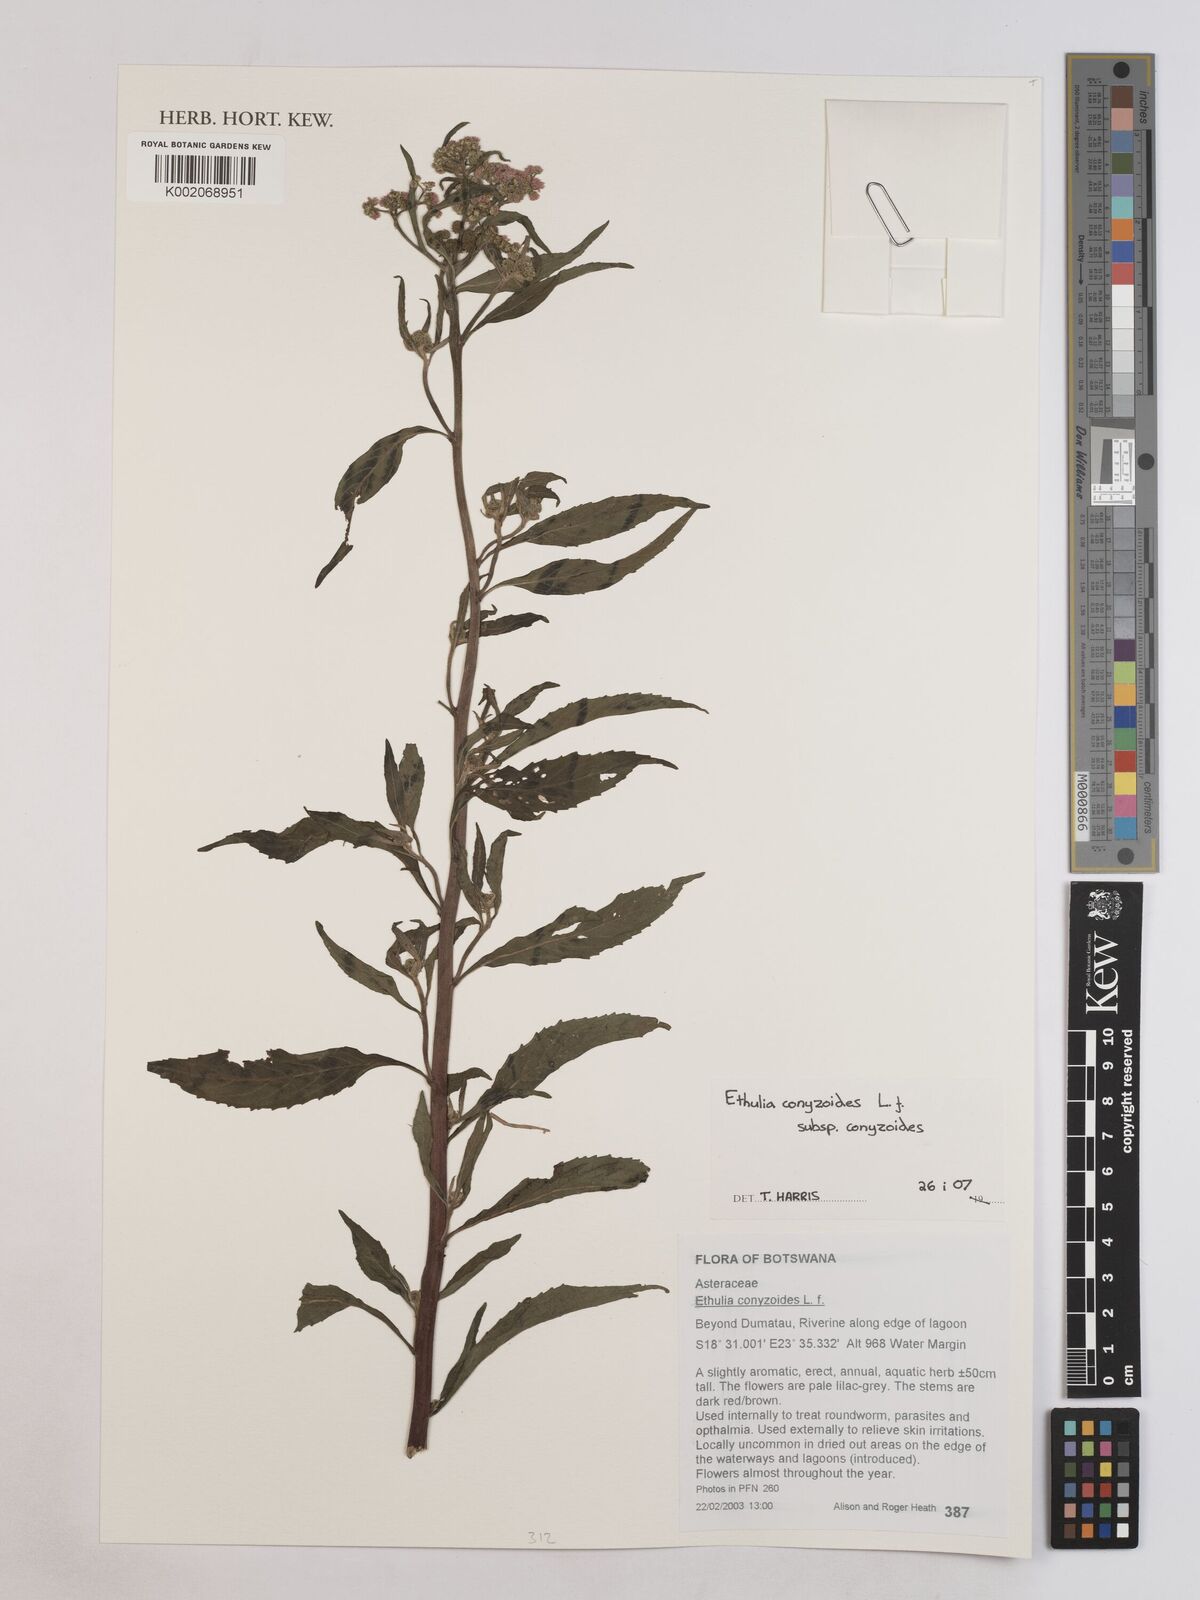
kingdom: Plantae
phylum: Tracheophyta
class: Magnoliopsida
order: Asterales
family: Asteraceae
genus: Ethulia
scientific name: Ethulia conyzoides
